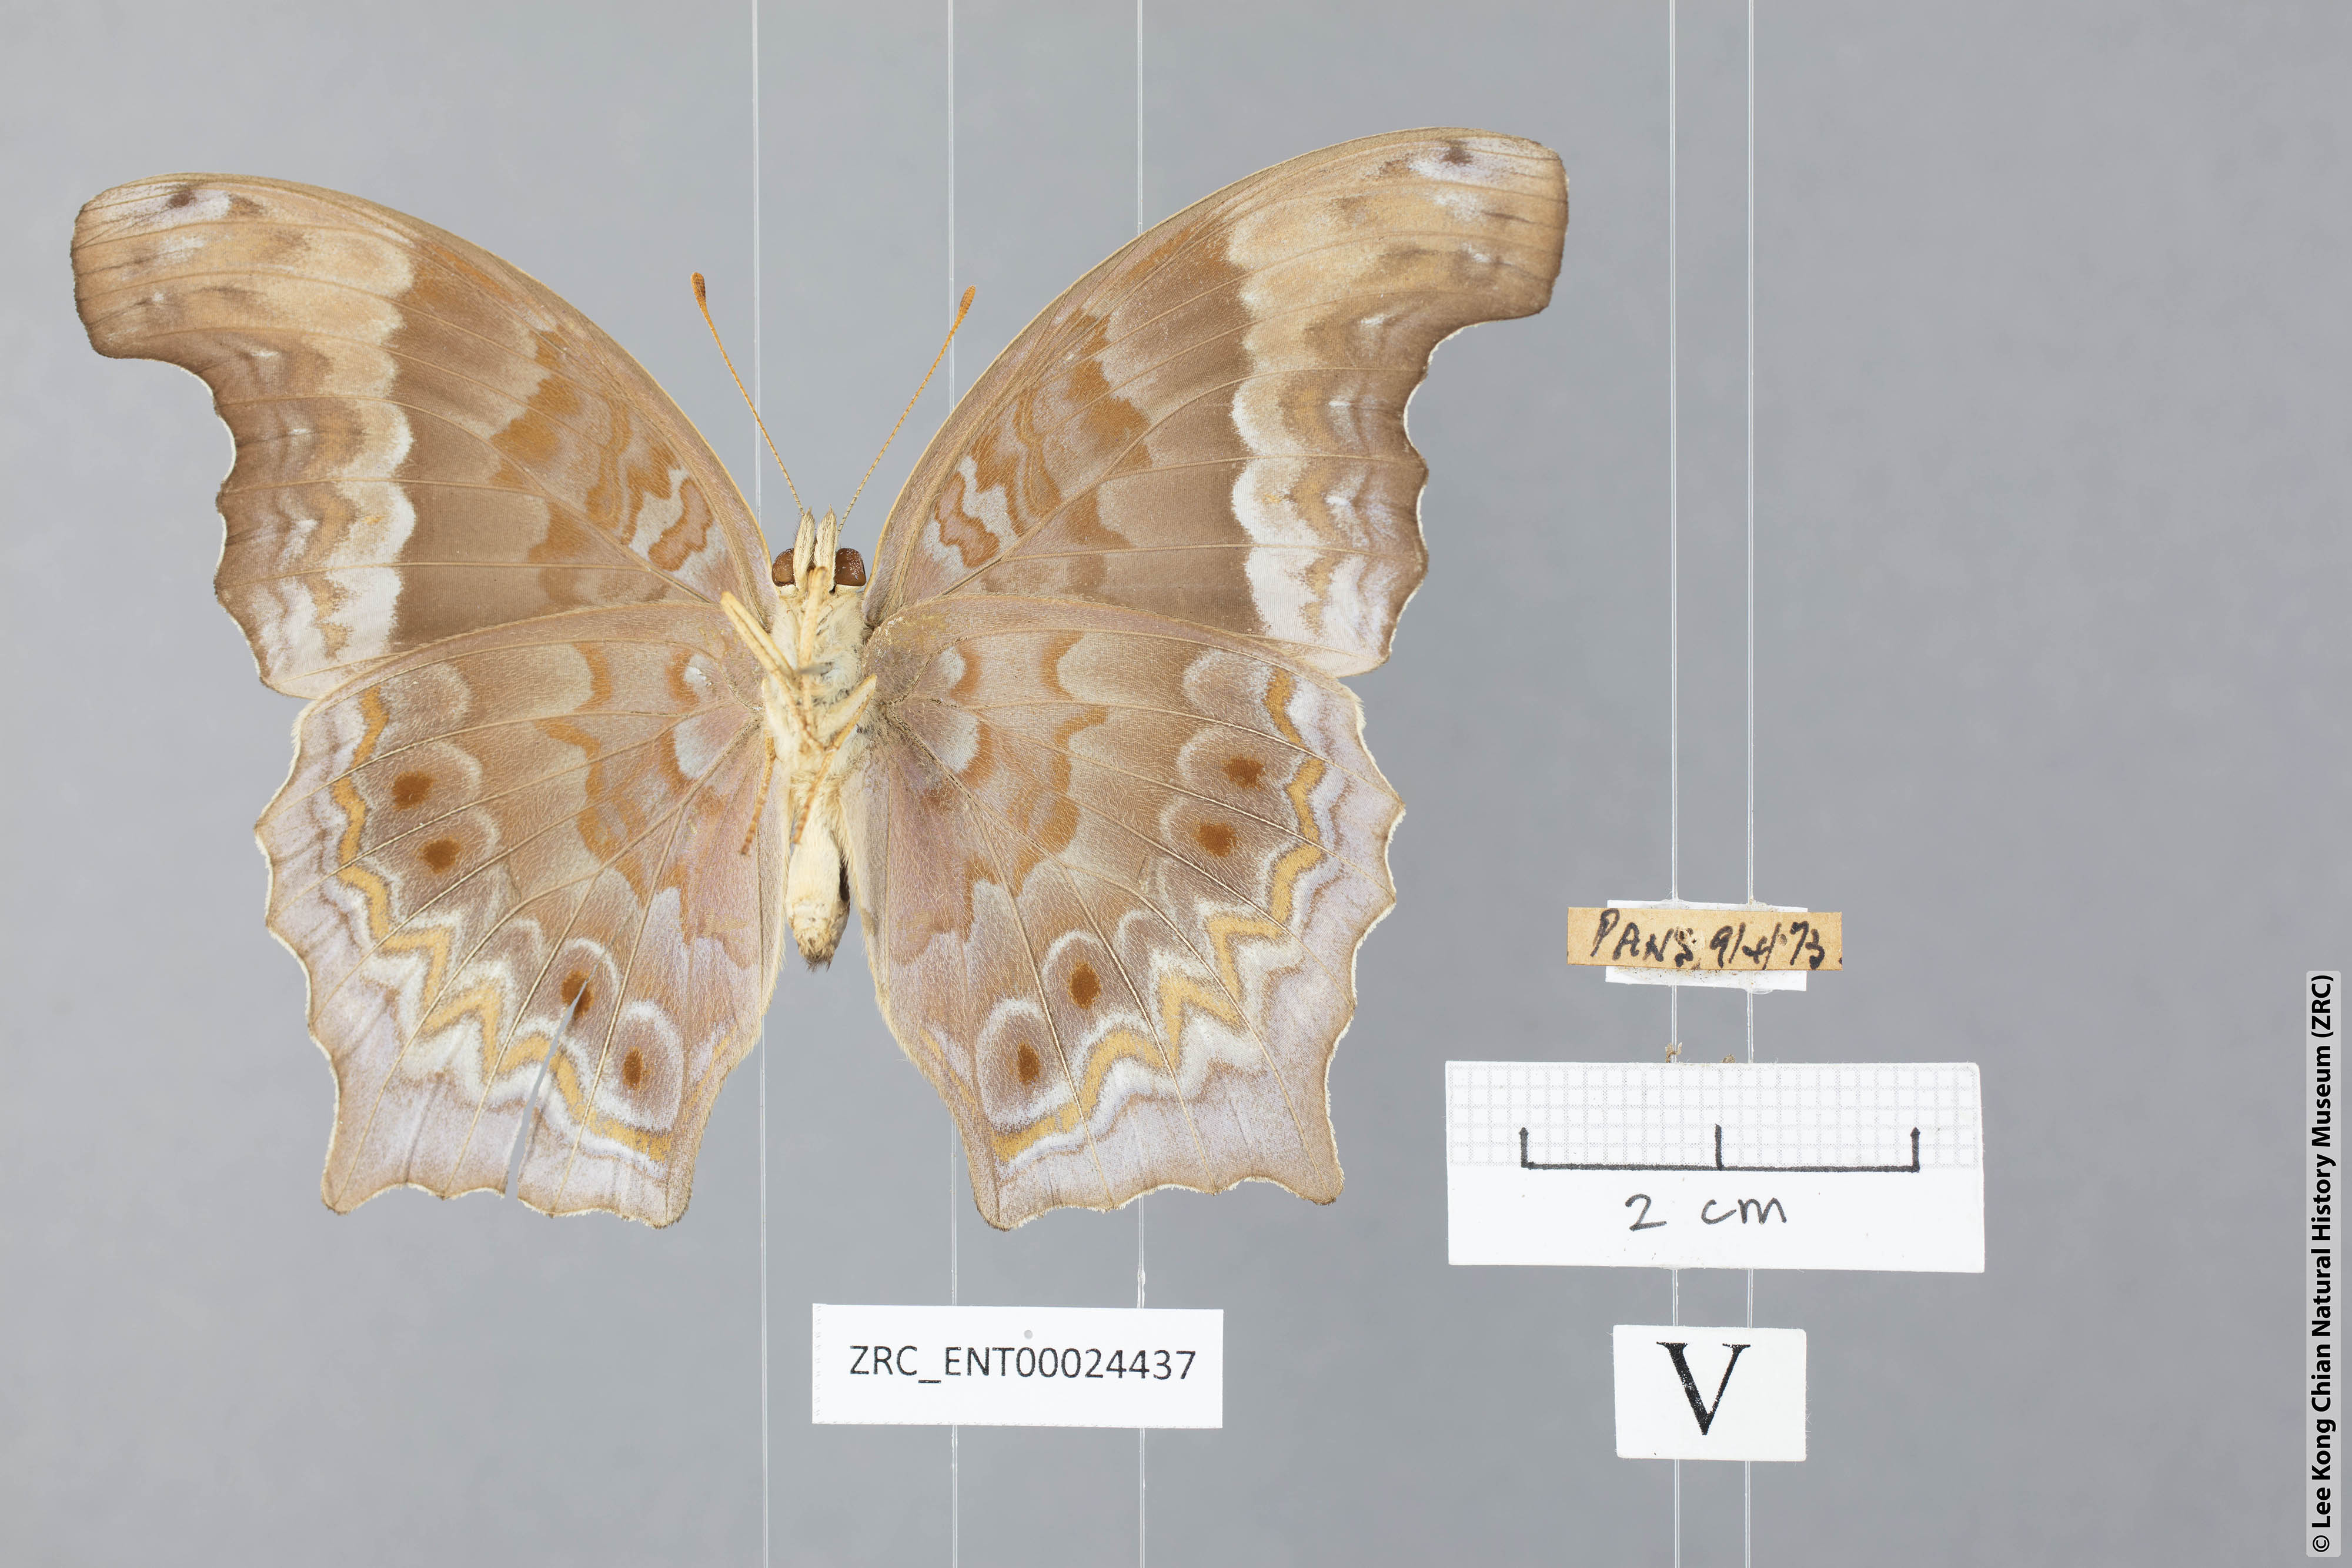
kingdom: Animalia
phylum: Arthropoda
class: Insecta
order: Lepidoptera
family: Nymphalidae
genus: Terinos
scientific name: Terinos terpander
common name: Royal assyrian
